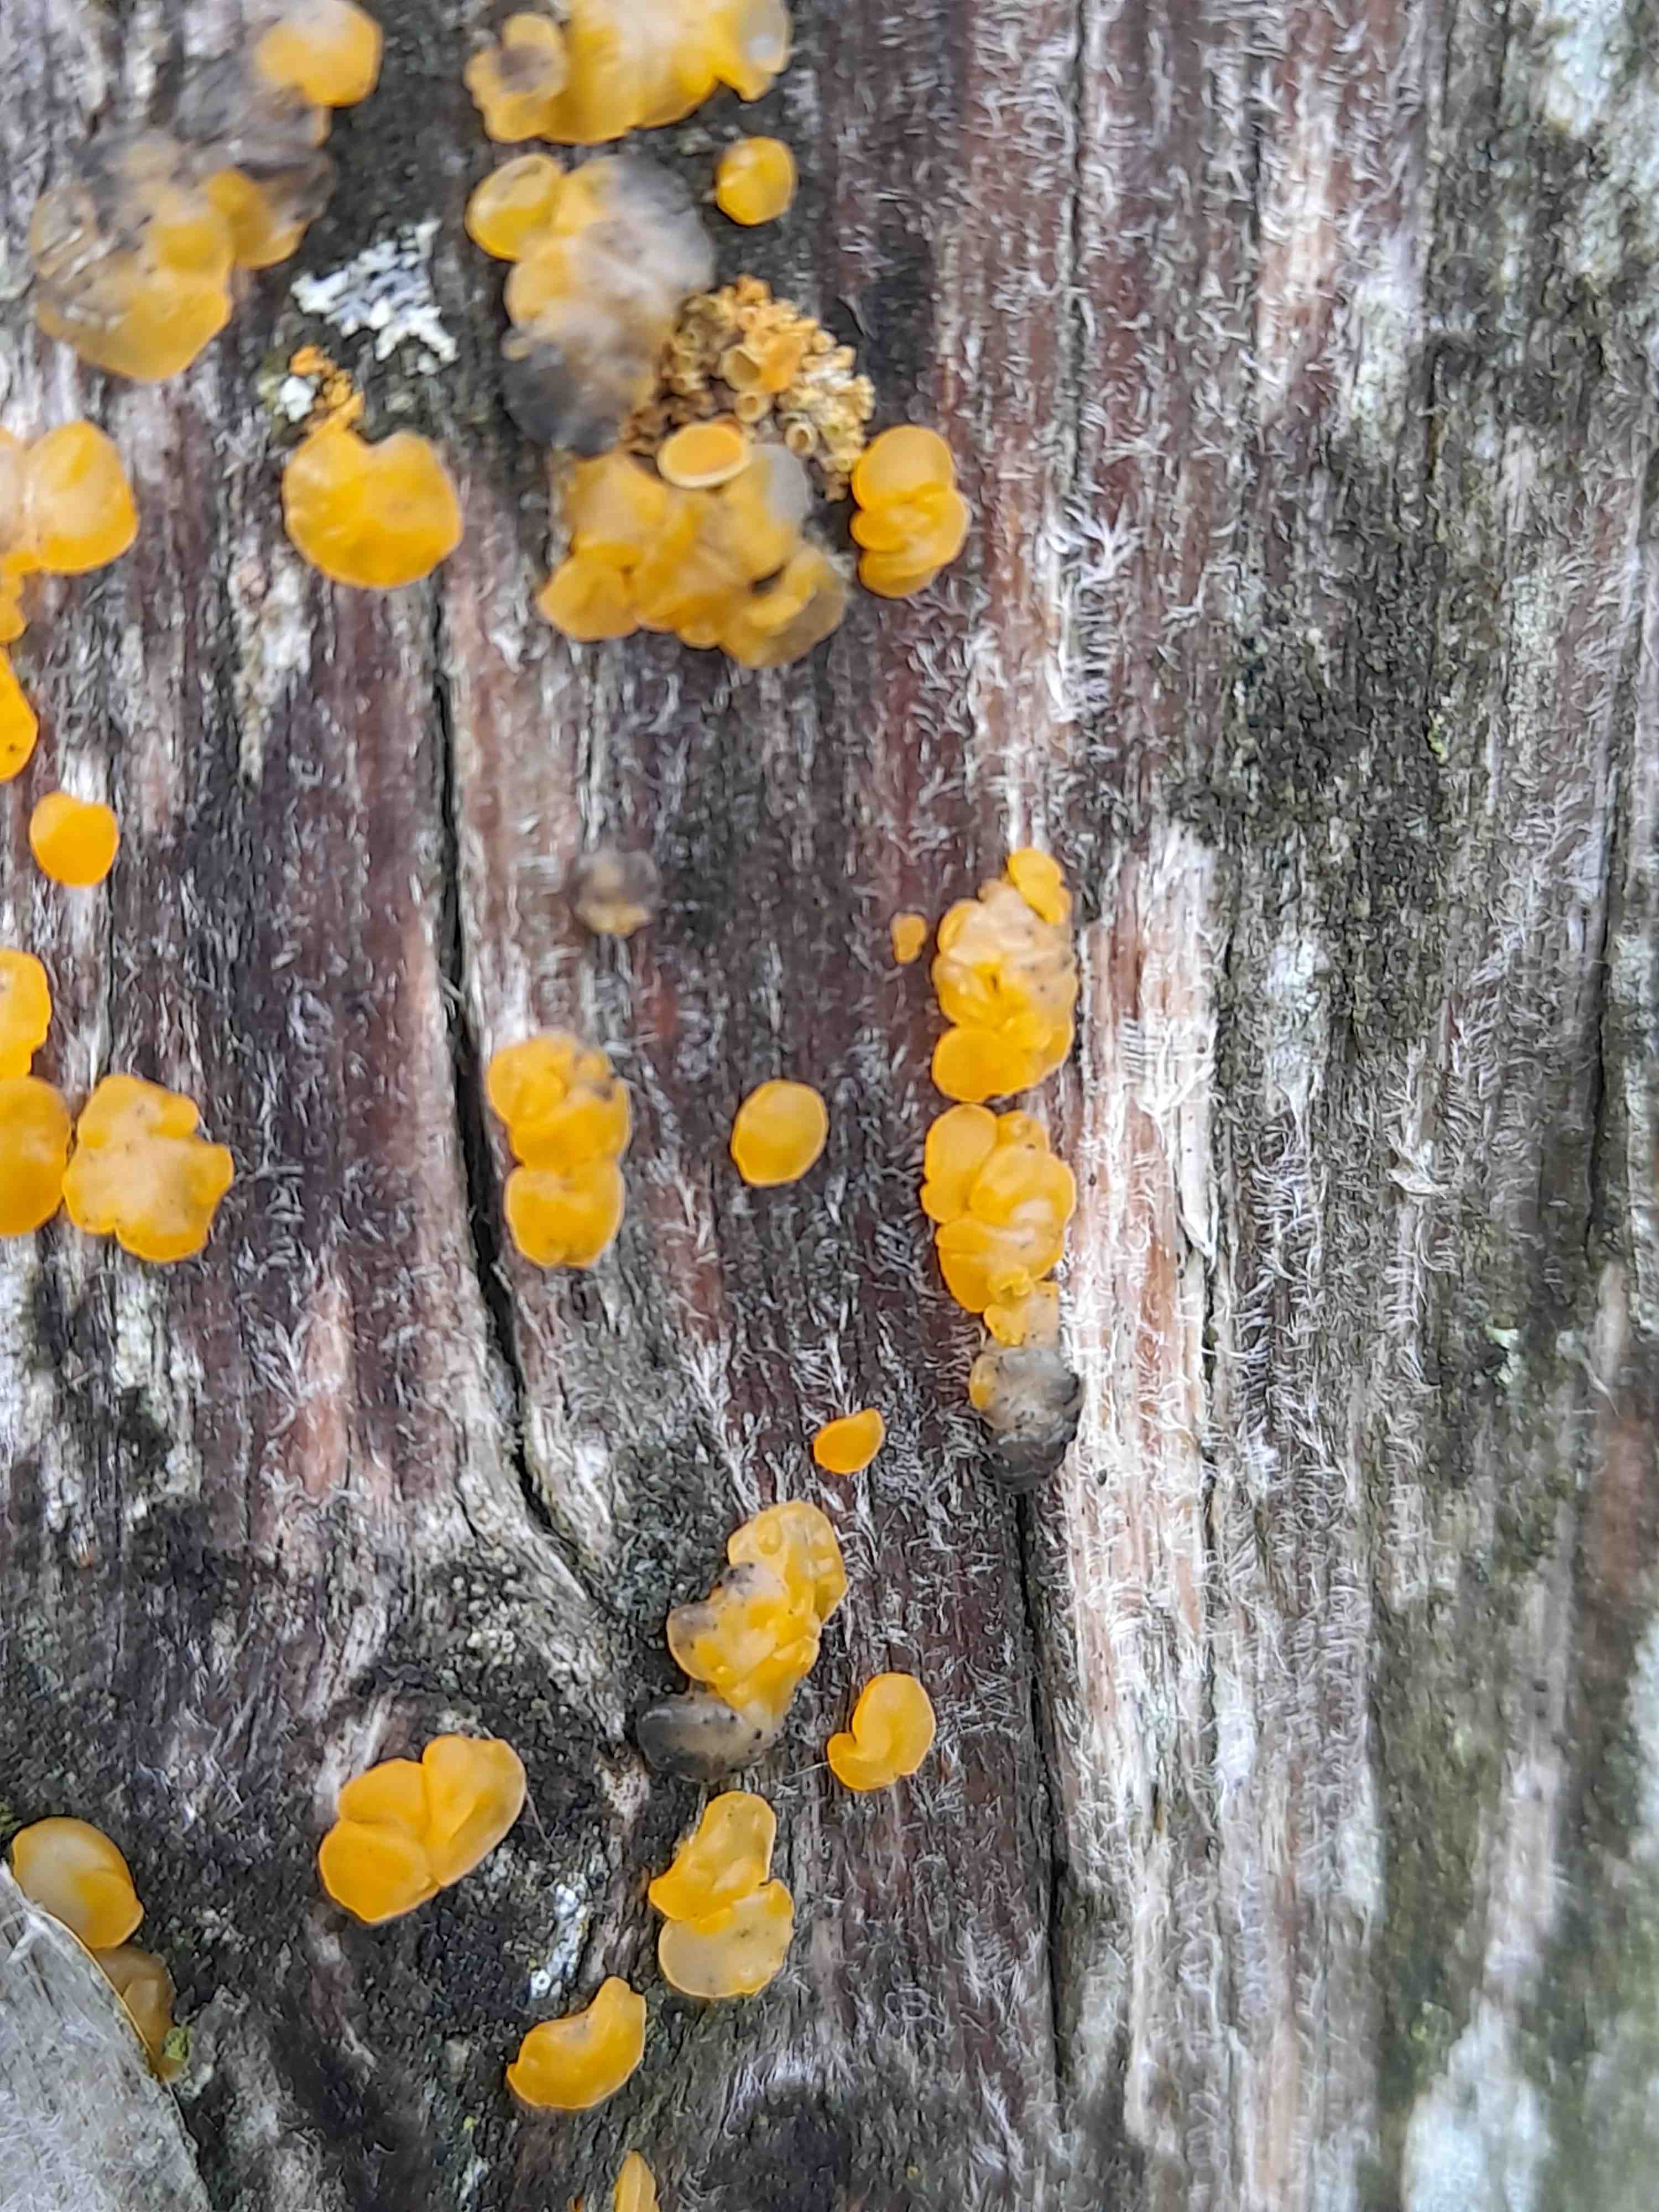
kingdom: Fungi
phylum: Basidiomycota
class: Dacrymycetes
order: Dacrymycetales
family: Dacrymycetaceae
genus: Dacrymyces
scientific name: Dacrymyces
